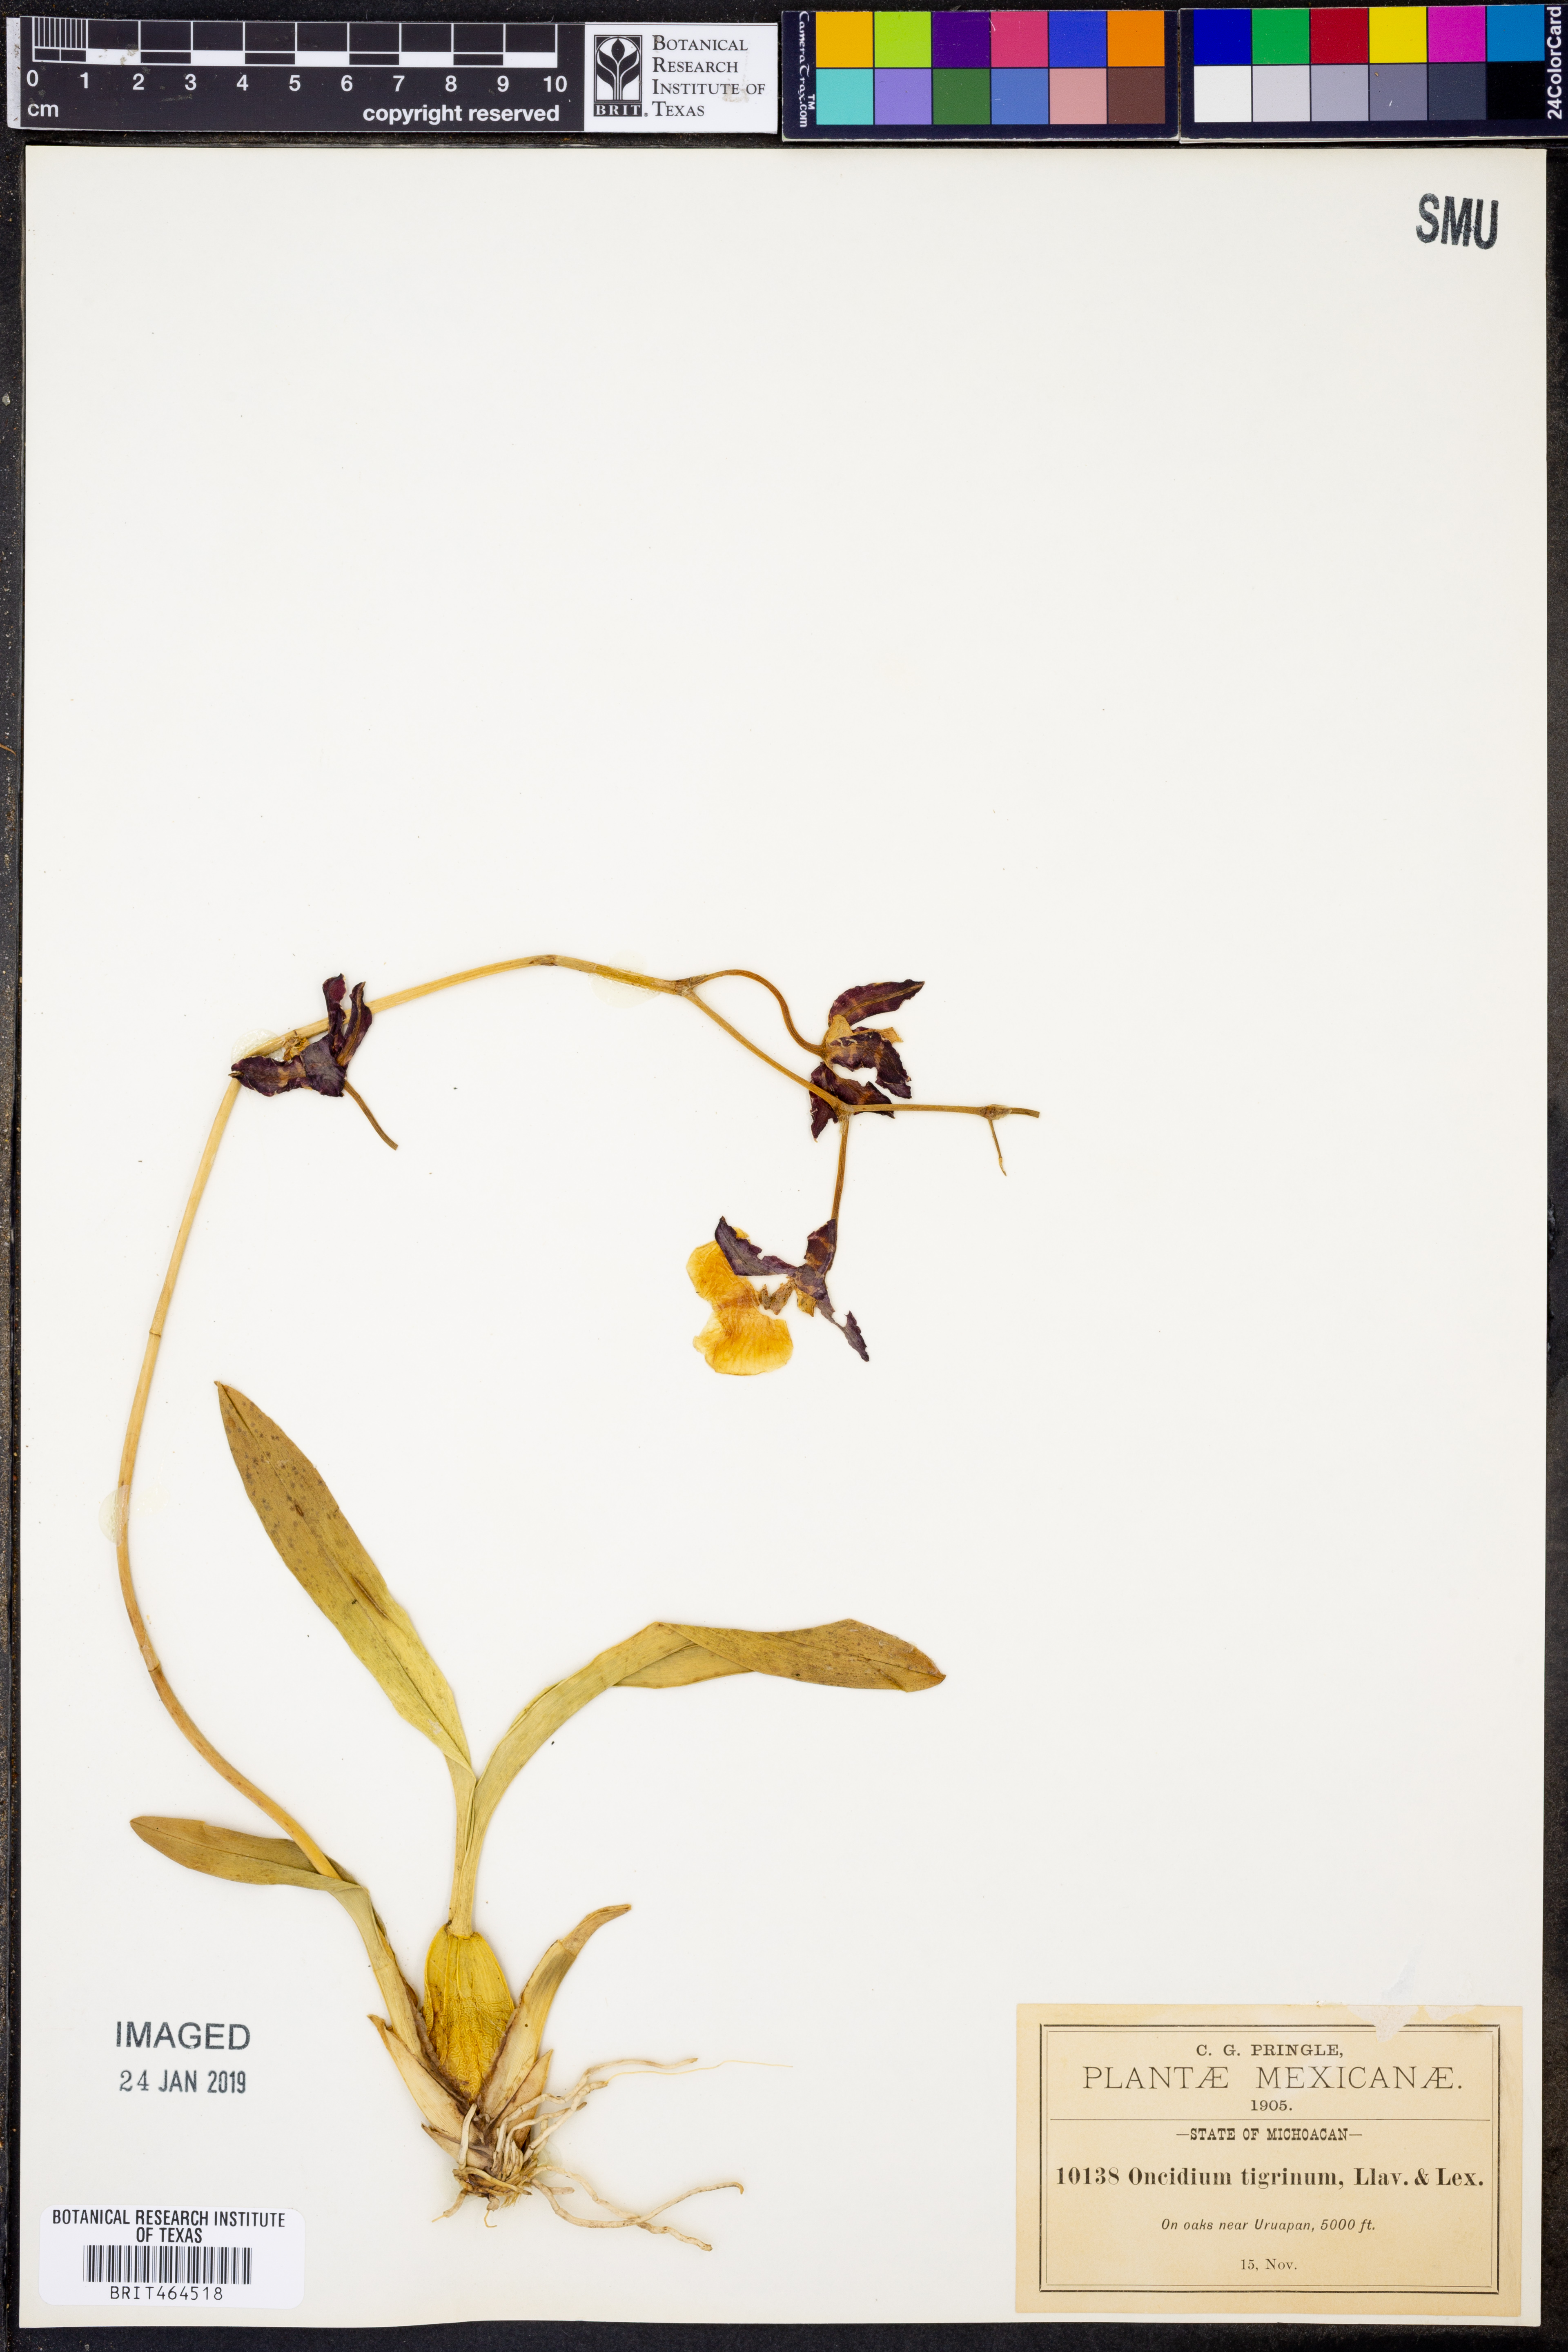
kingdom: Plantae
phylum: Tracheophyta
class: Liliopsida
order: Asparagales
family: Orchidaceae
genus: Oncidium
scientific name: Oncidium maculatum
